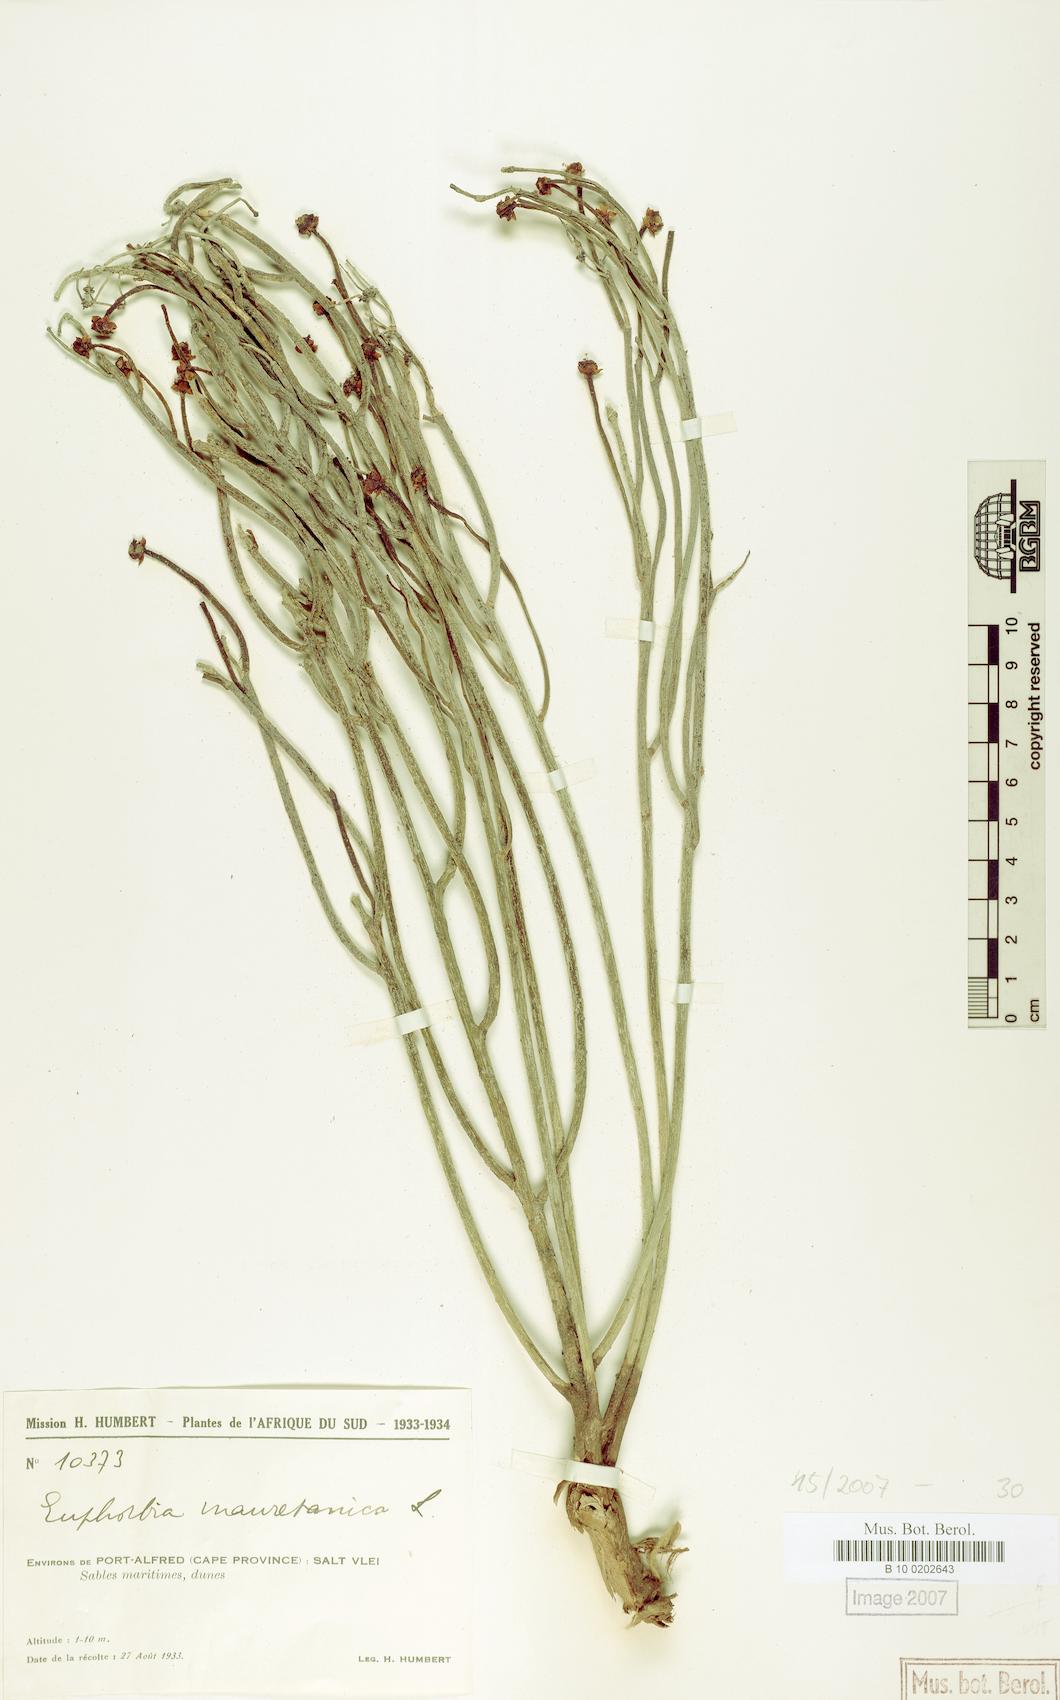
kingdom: Plantae
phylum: Tracheophyta
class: Magnoliopsida
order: Malpighiales
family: Euphorbiaceae
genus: Euphorbia
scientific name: Euphorbia mauritanica
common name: Jackal's-food
